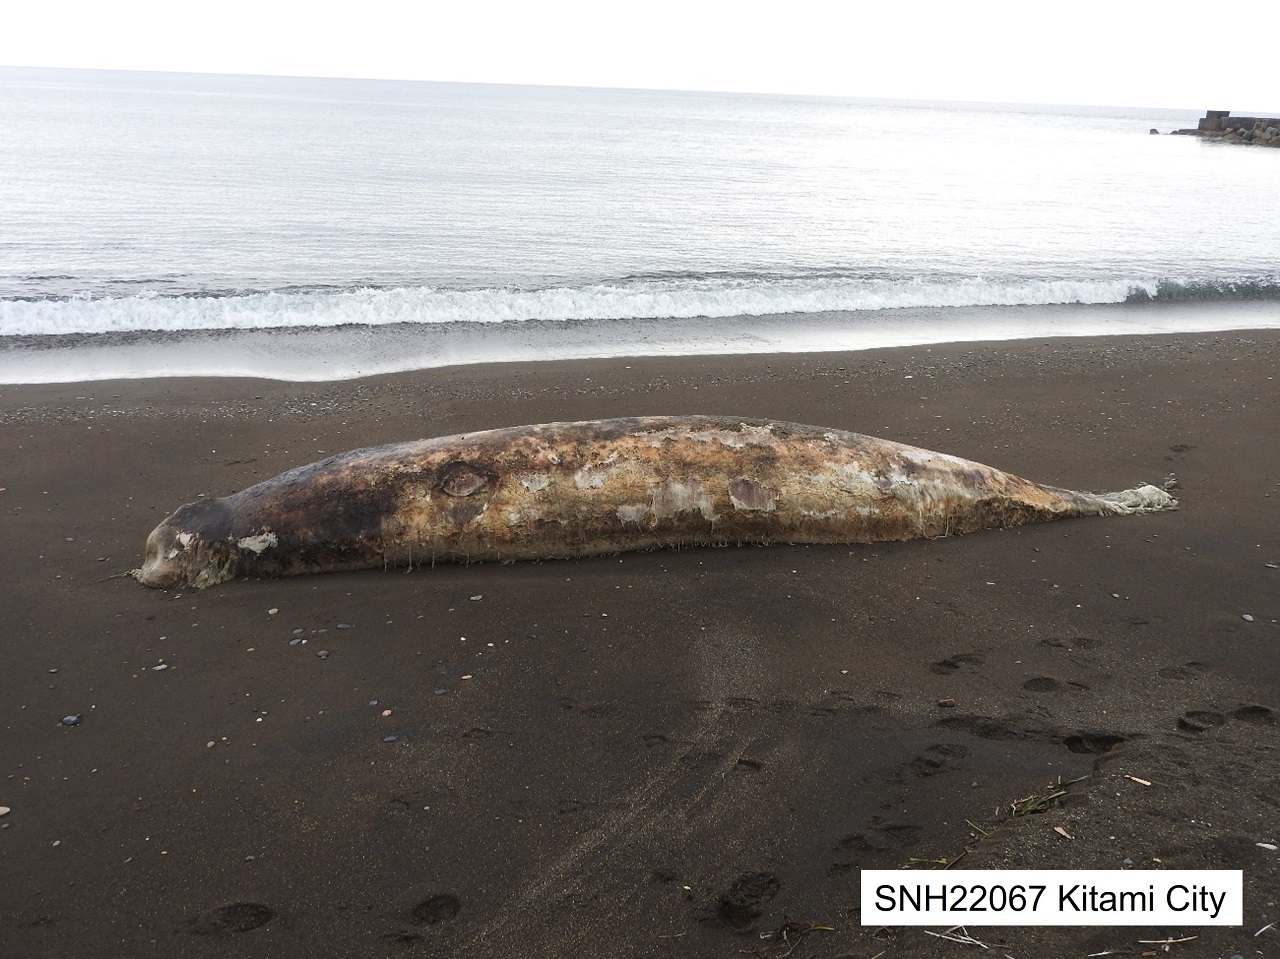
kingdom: Animalia
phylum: Chordata
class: Mammalia
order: Cetacea
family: Hyperoodontidae
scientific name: Hyperoodontidae
